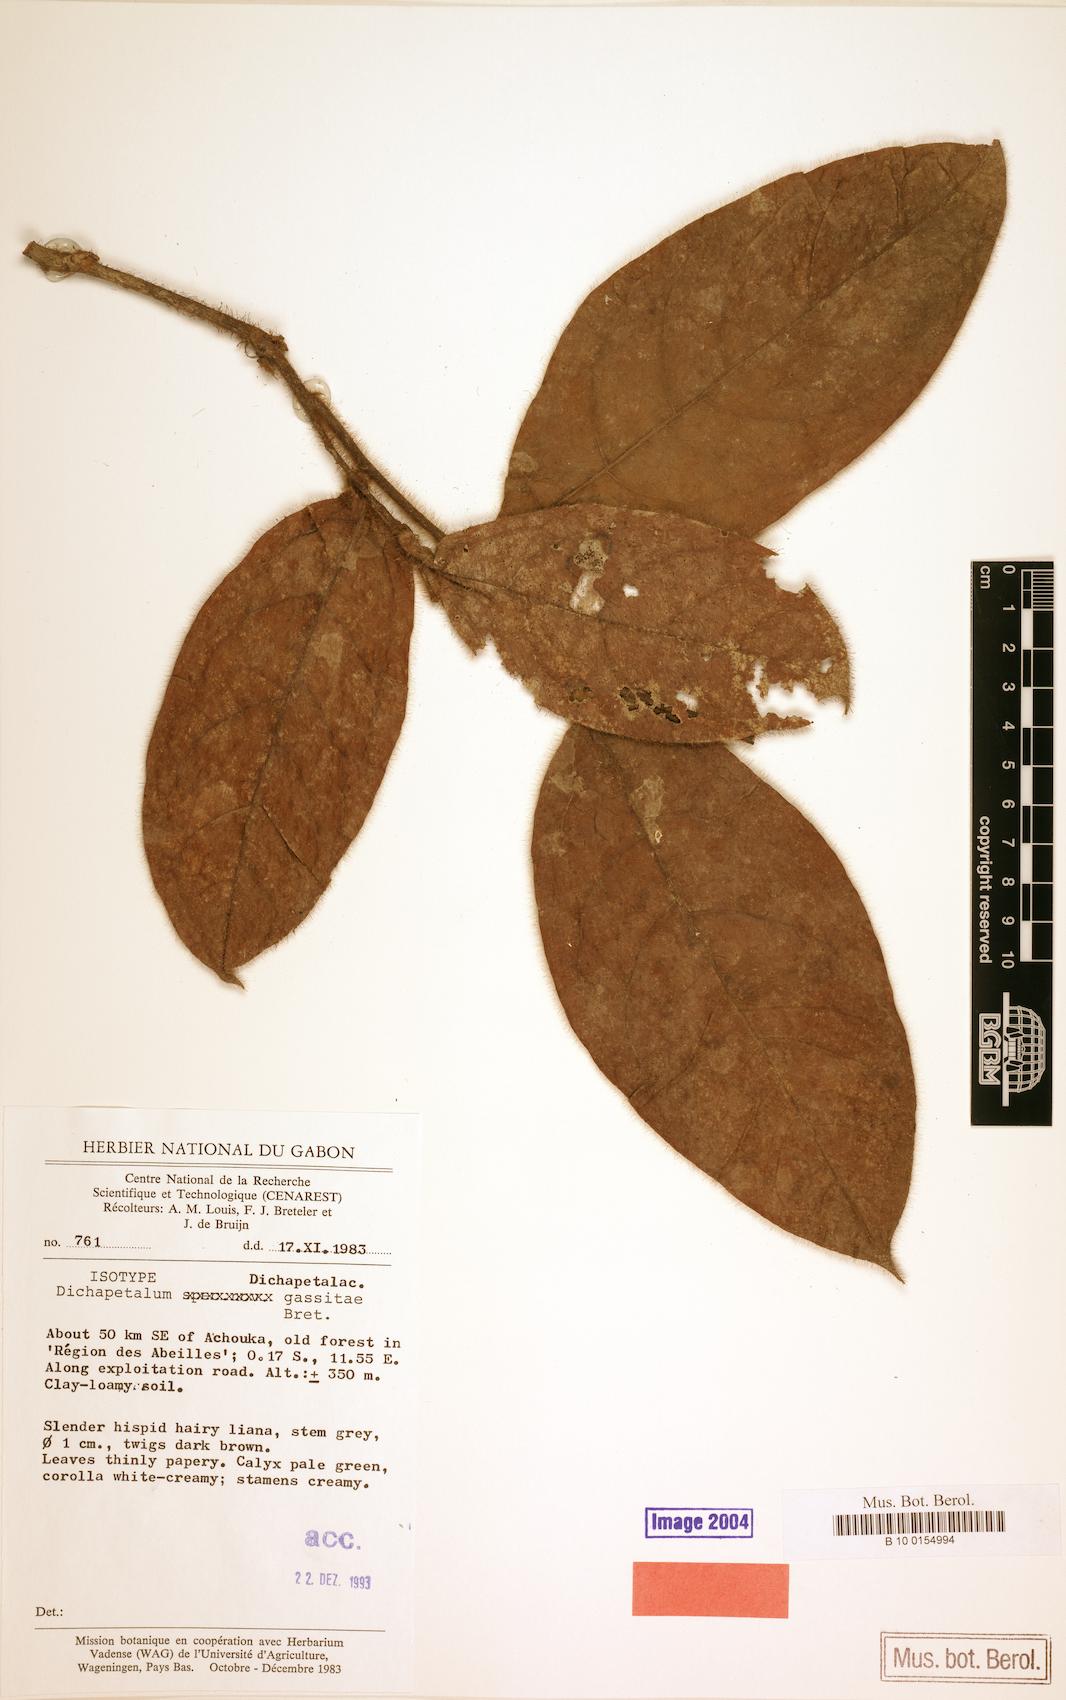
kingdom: Plantae
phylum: Tracheophyta
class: Magnoliopsida
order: Malpighiales
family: Dichapetalaceae
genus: Dichapetalum
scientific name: Dichapetalum gassitae
